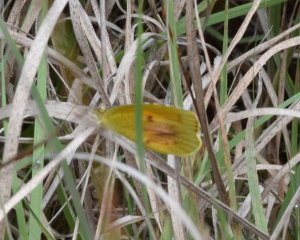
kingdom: Animalia
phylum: Arthropoda
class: Insecta
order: Lepidoptera
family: Pieridae
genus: Abaeis
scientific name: Abaeis nicippe
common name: Sleepy Orange
